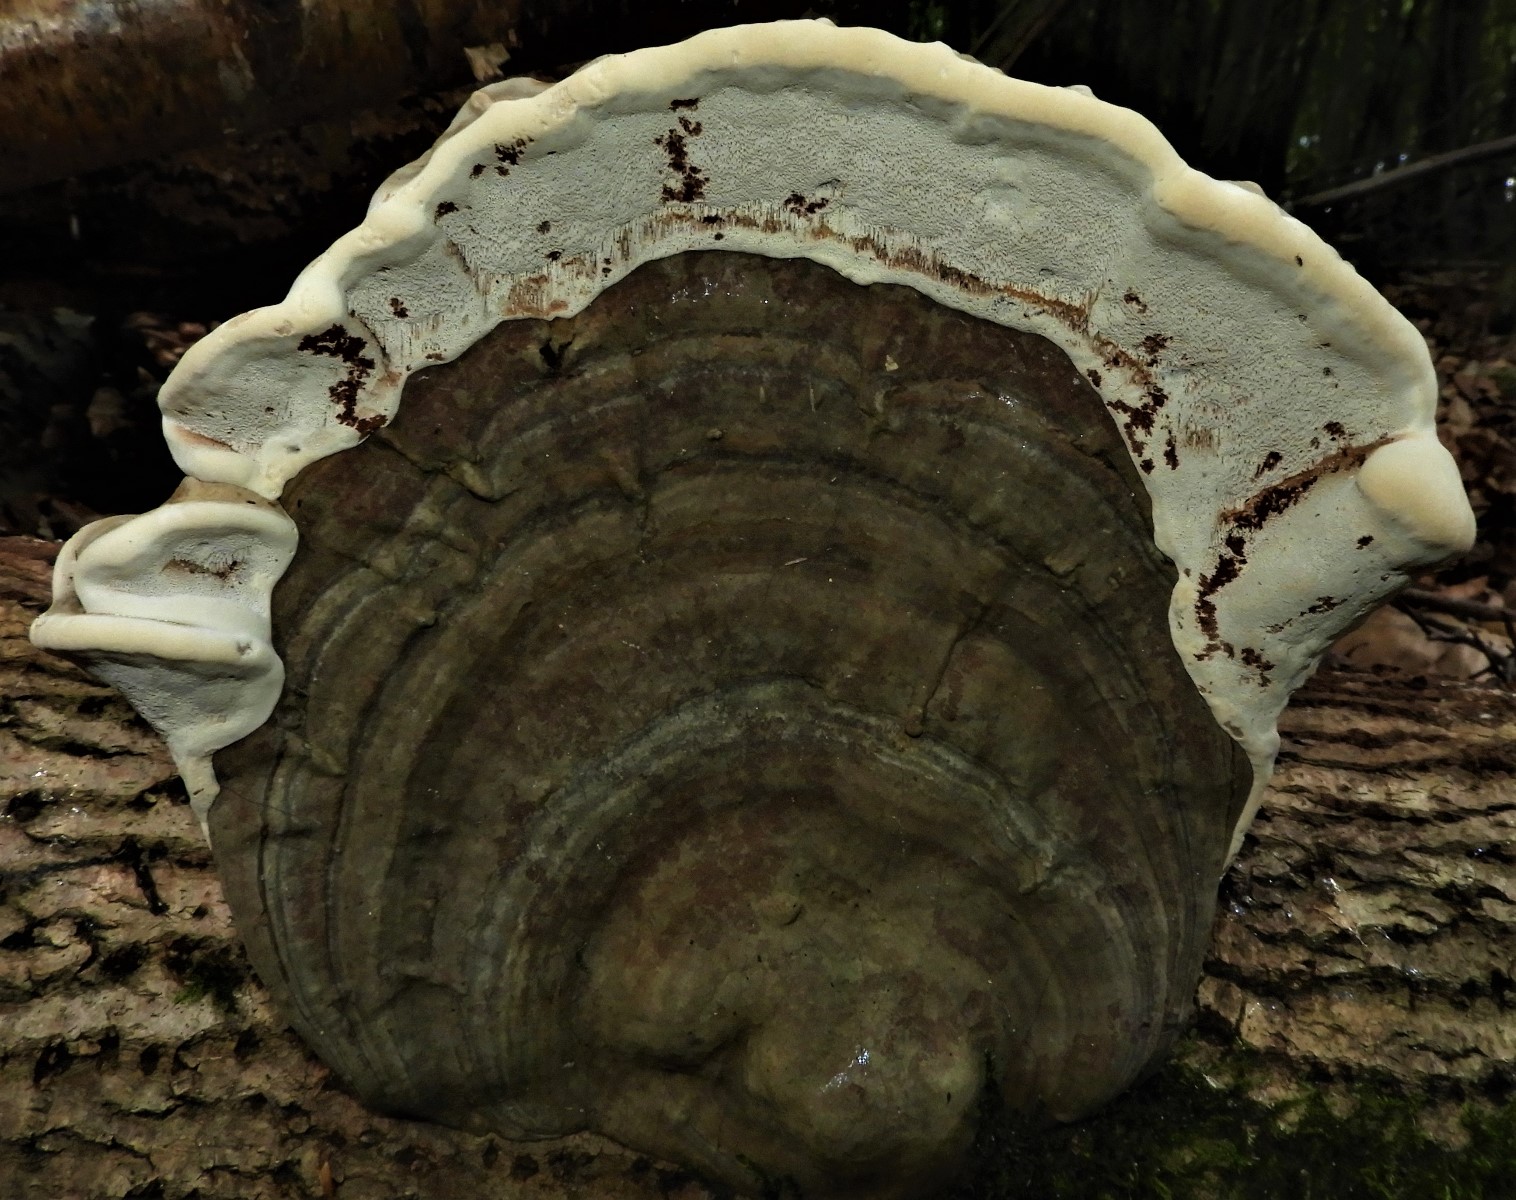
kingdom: Fungi
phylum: Basidiomycota
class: Agaricomycetes
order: Polyporales
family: Polyporaceae
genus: Ganoderma
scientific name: Ganoderma applanatum
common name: flad lakporesvamp
